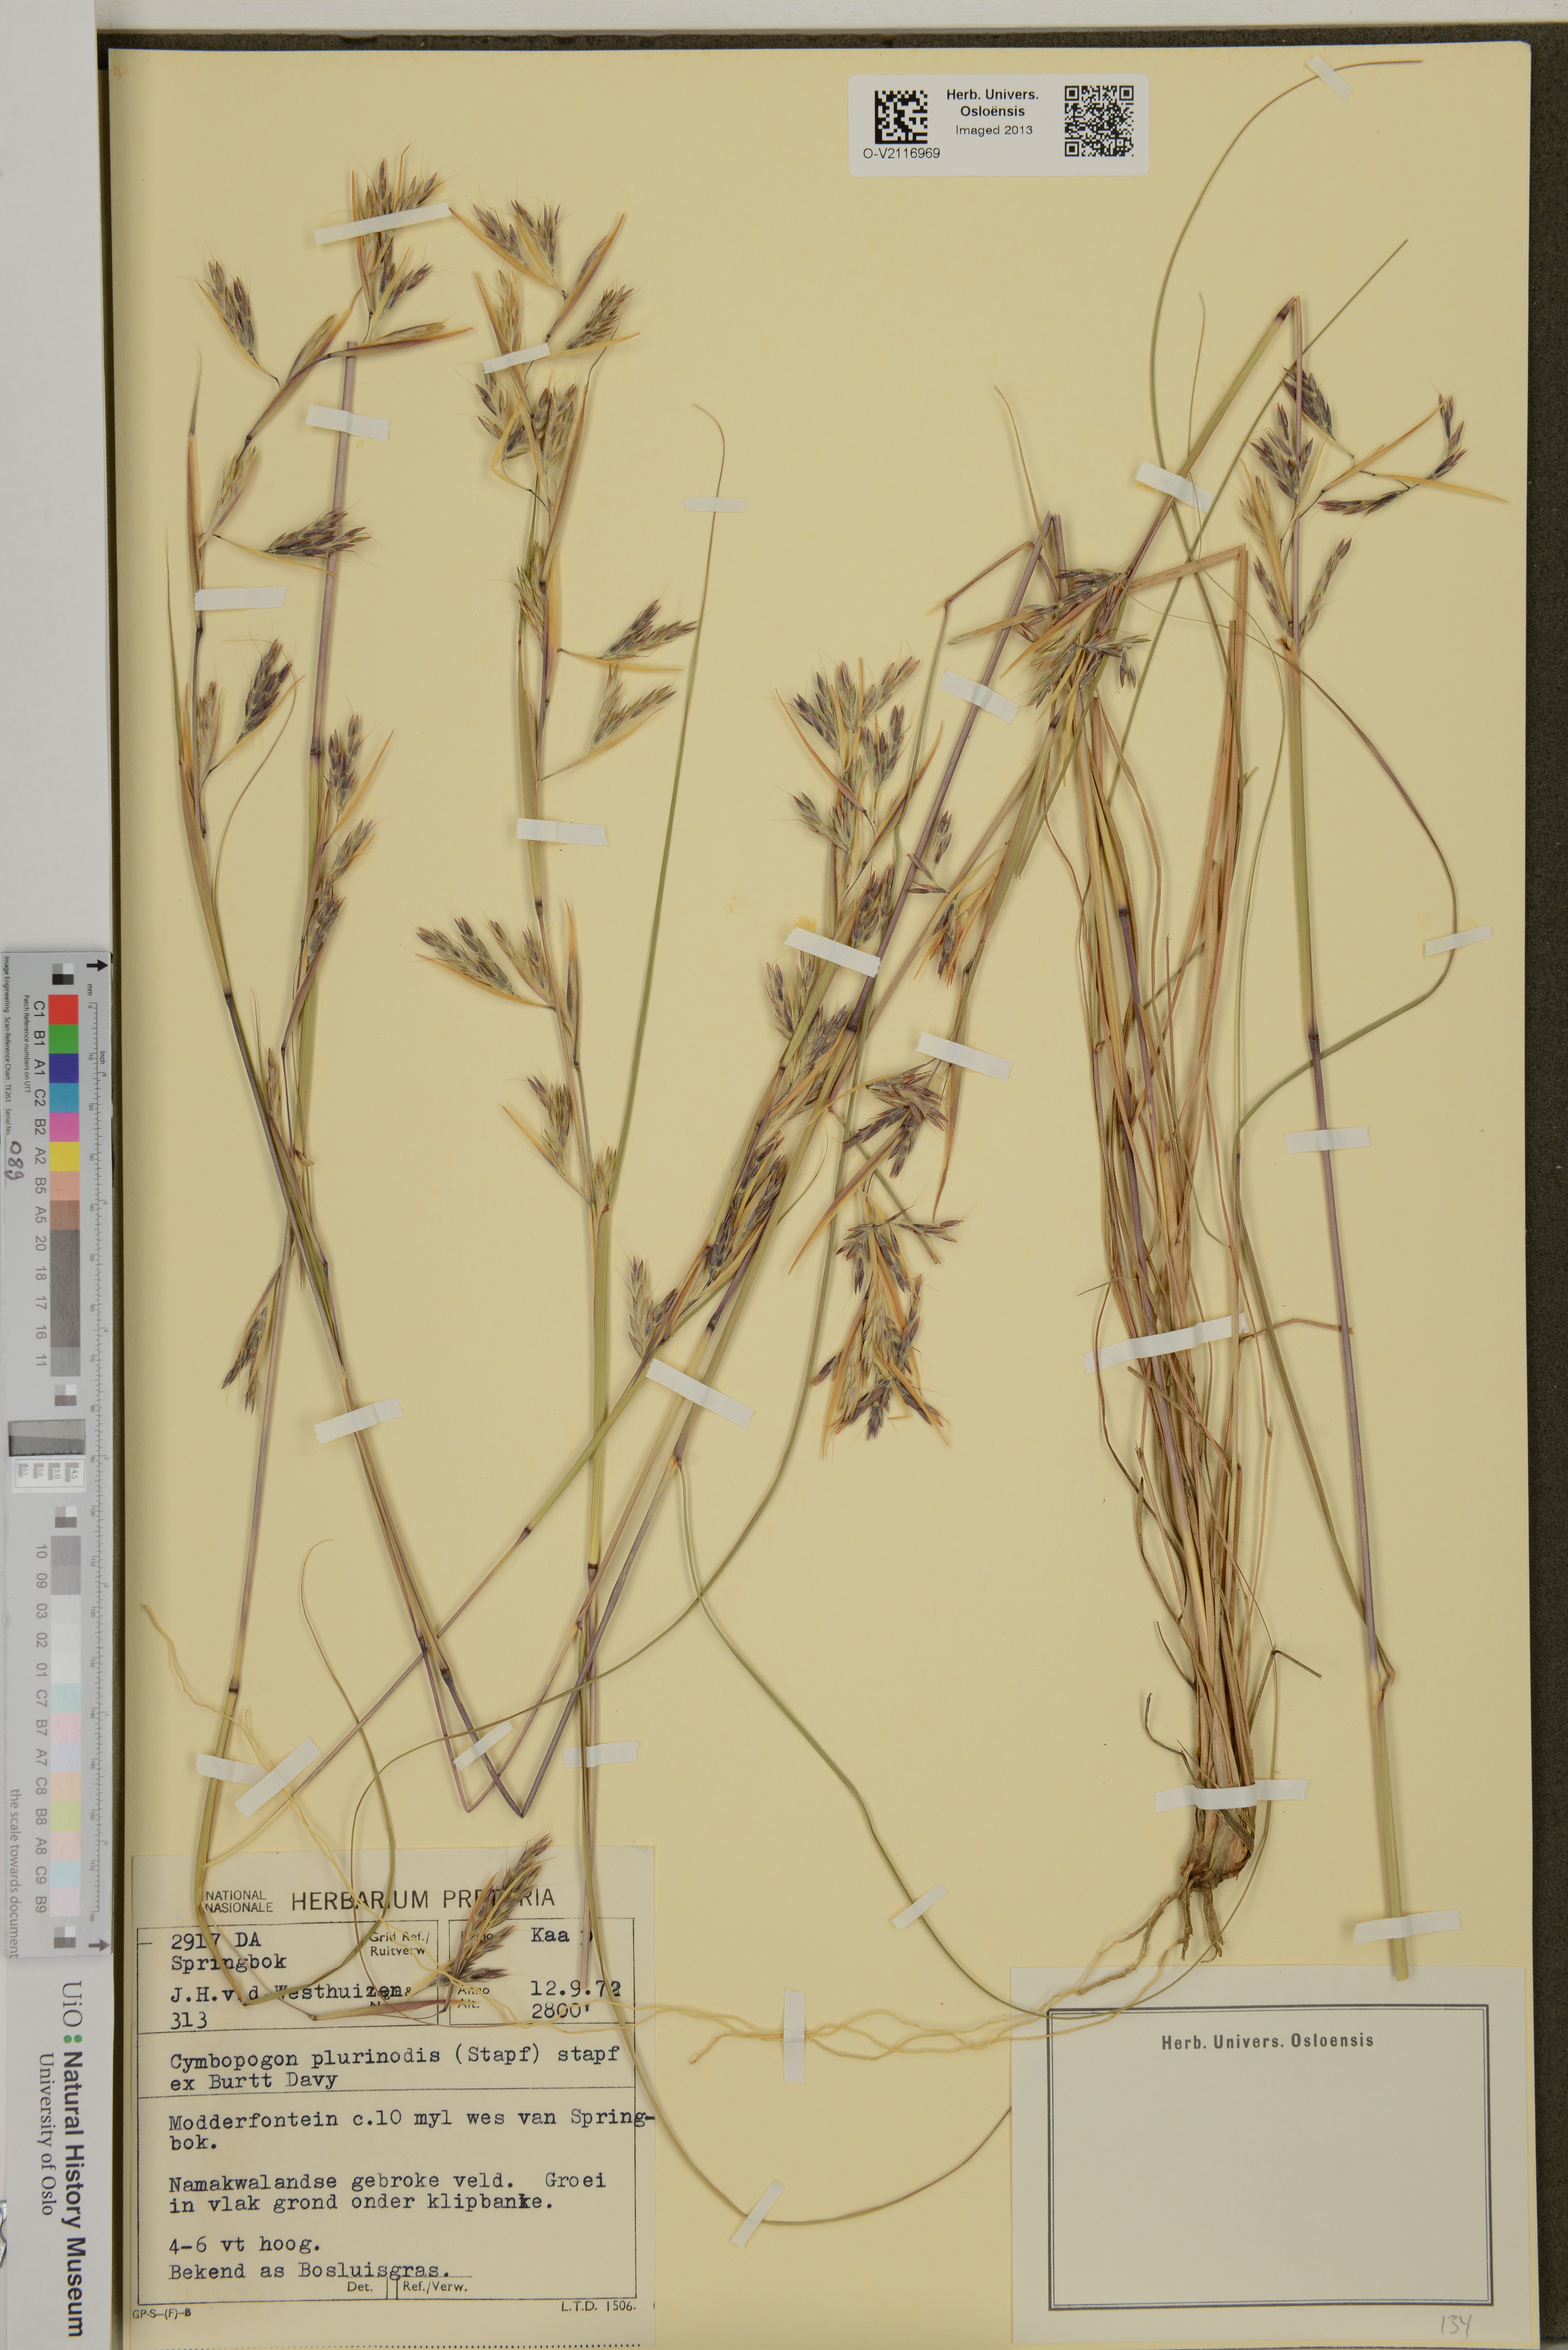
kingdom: Plantae
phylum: Tracheophyta
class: Liliopsida
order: Poales
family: Poaceae
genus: Cymbopogon
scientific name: Cymbopogon pospischilii
